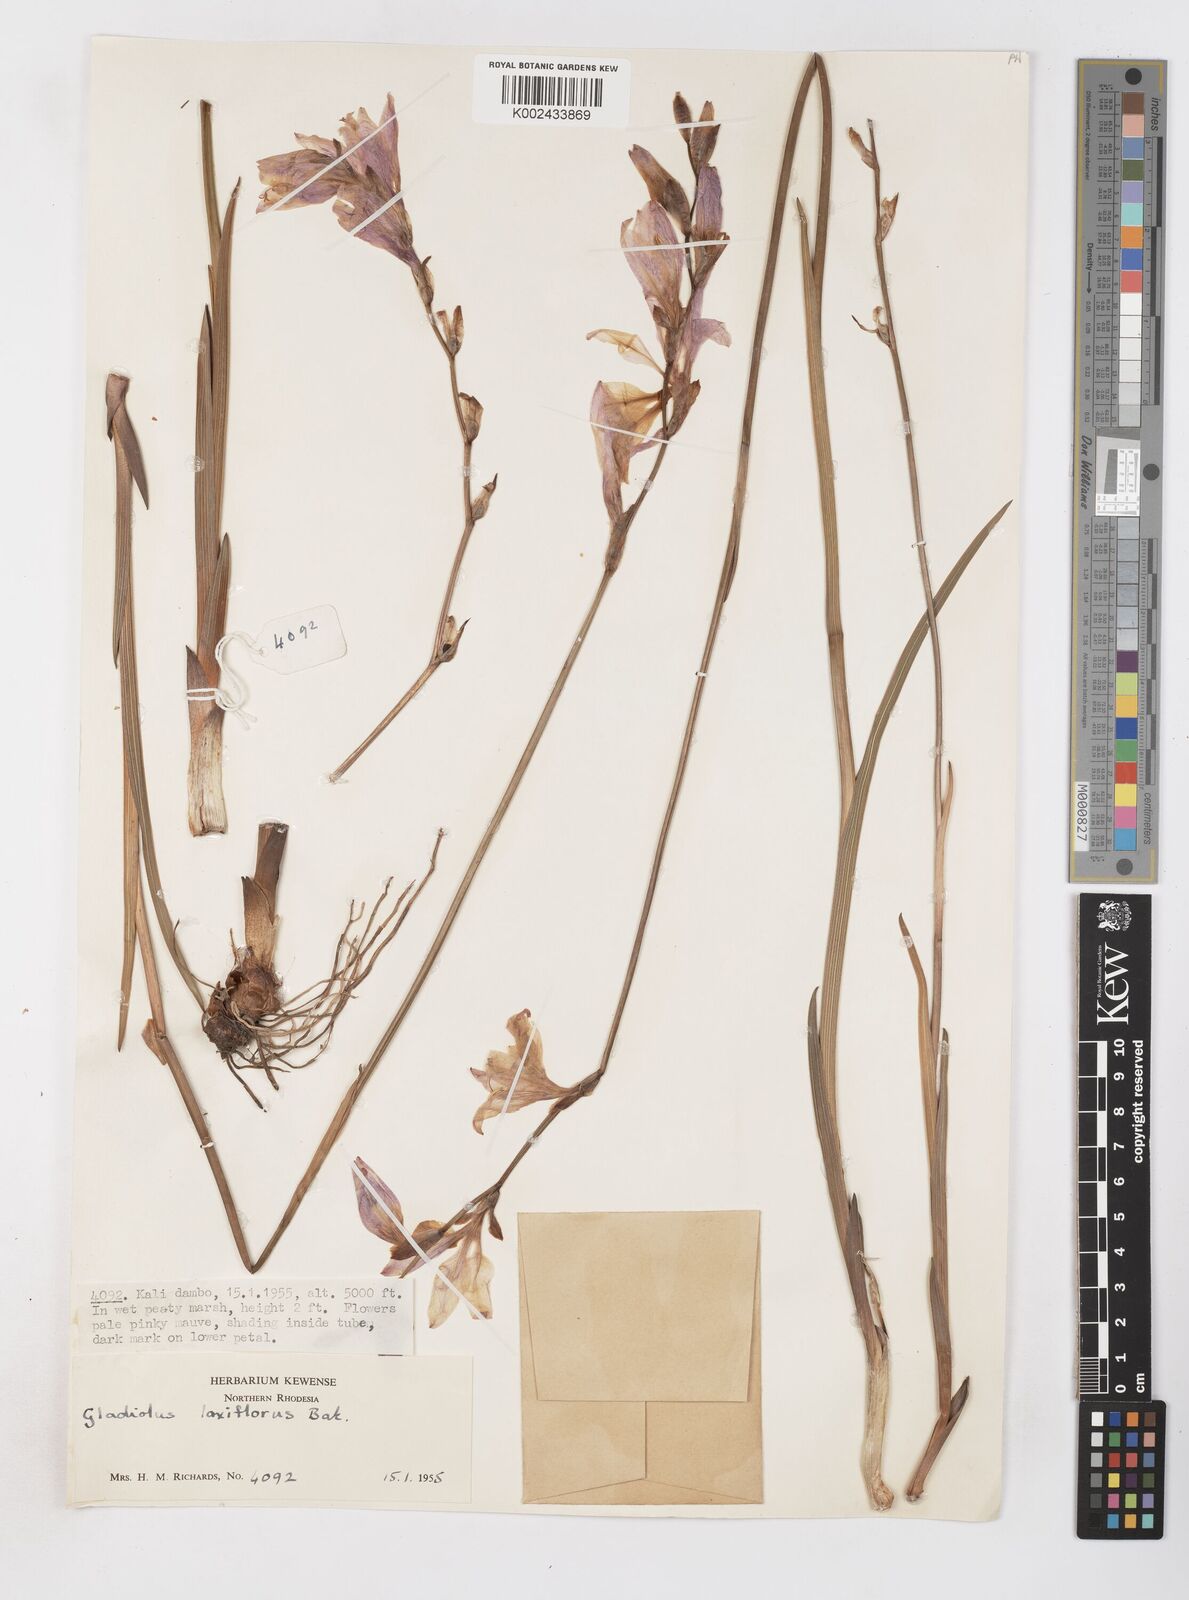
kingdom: Plantae
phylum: Tracheophyta
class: Liliopsida
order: Asparagales
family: Iridaceae
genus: Gladiolus
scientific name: Gladiolus laxiflorus
